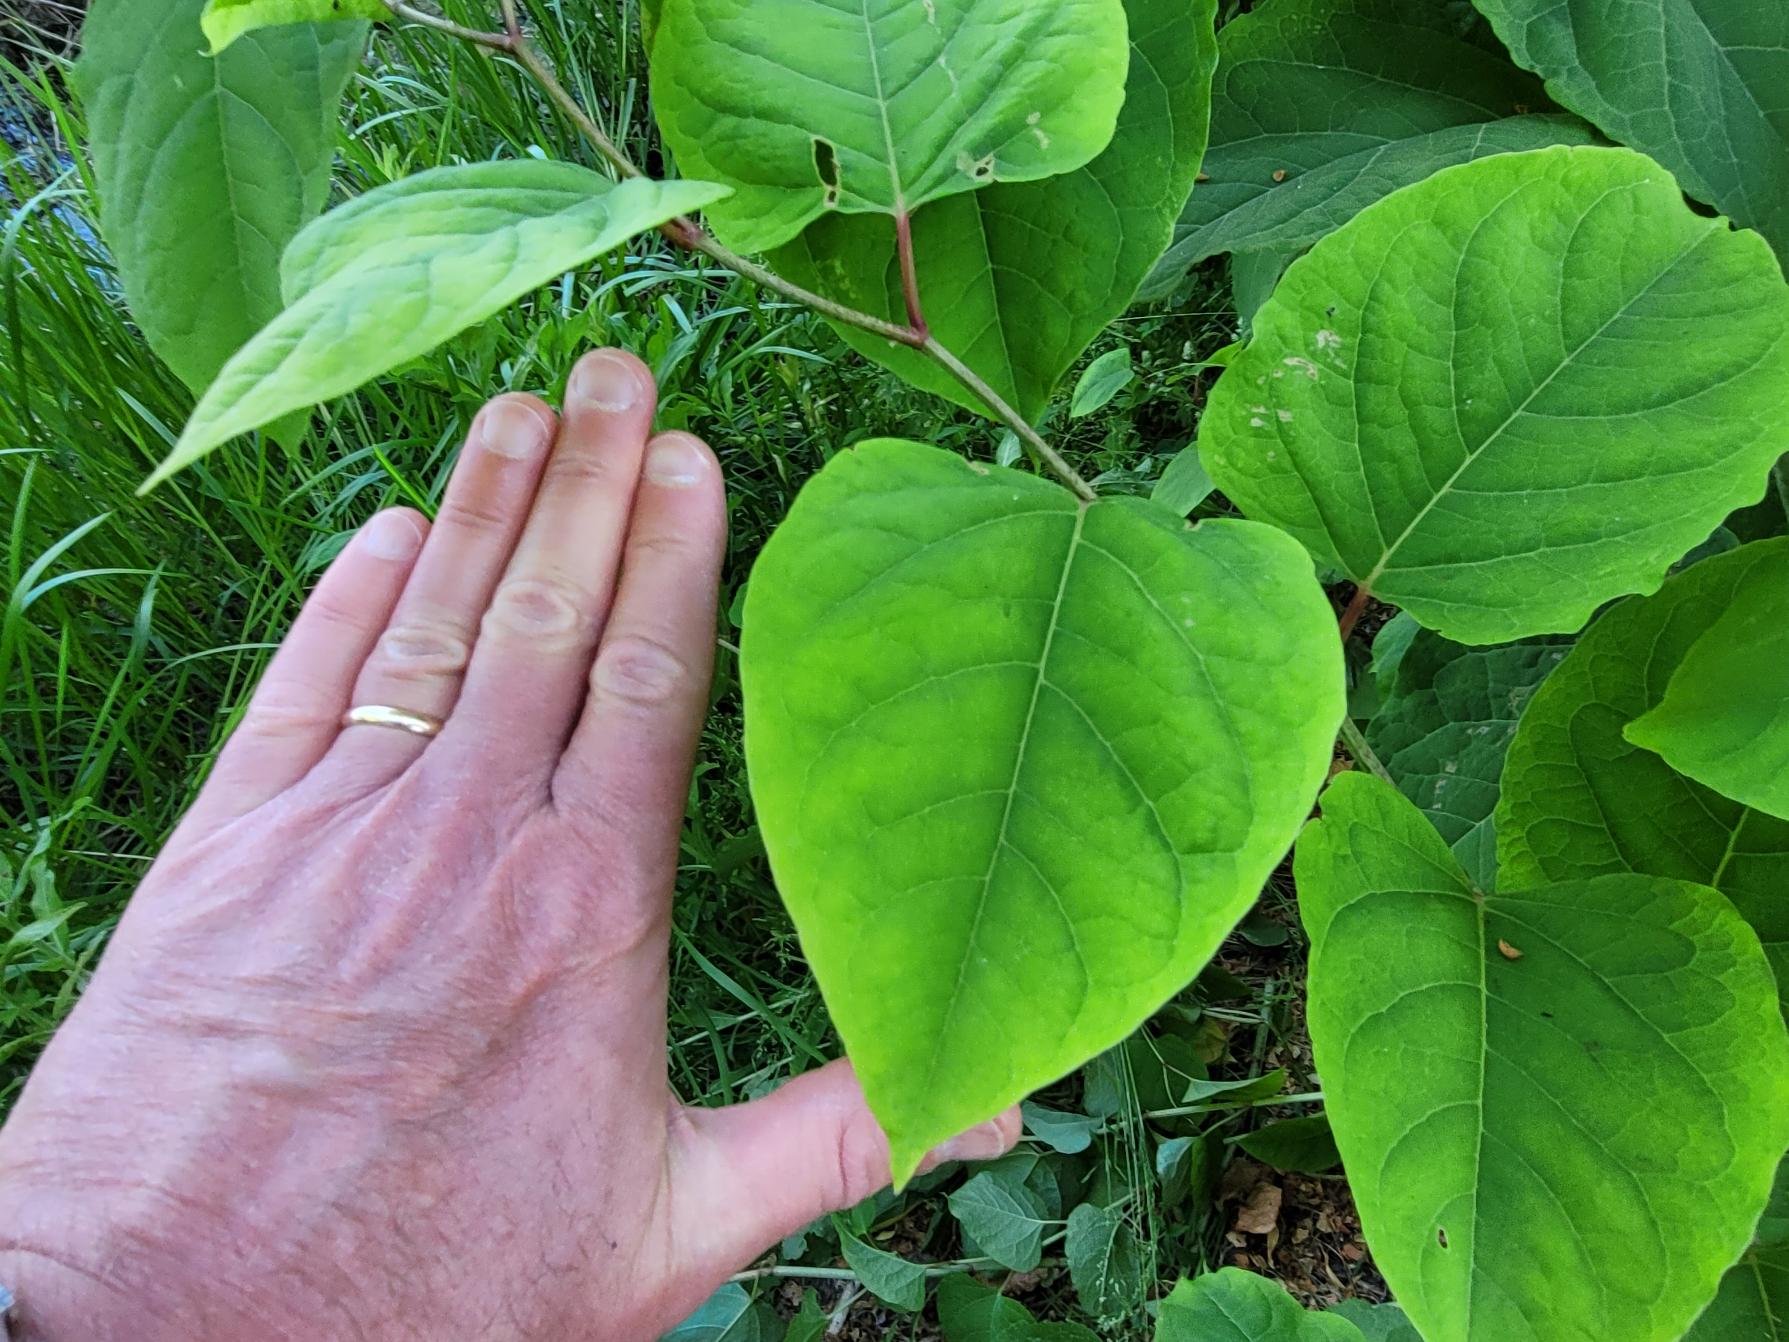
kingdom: Plantae
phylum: Tracheophyta
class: Magnoliopsida
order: Caryophyllales
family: Polygonaceae
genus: Reynoutria
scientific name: Reynoutria japonica
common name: Japan-pileurt
